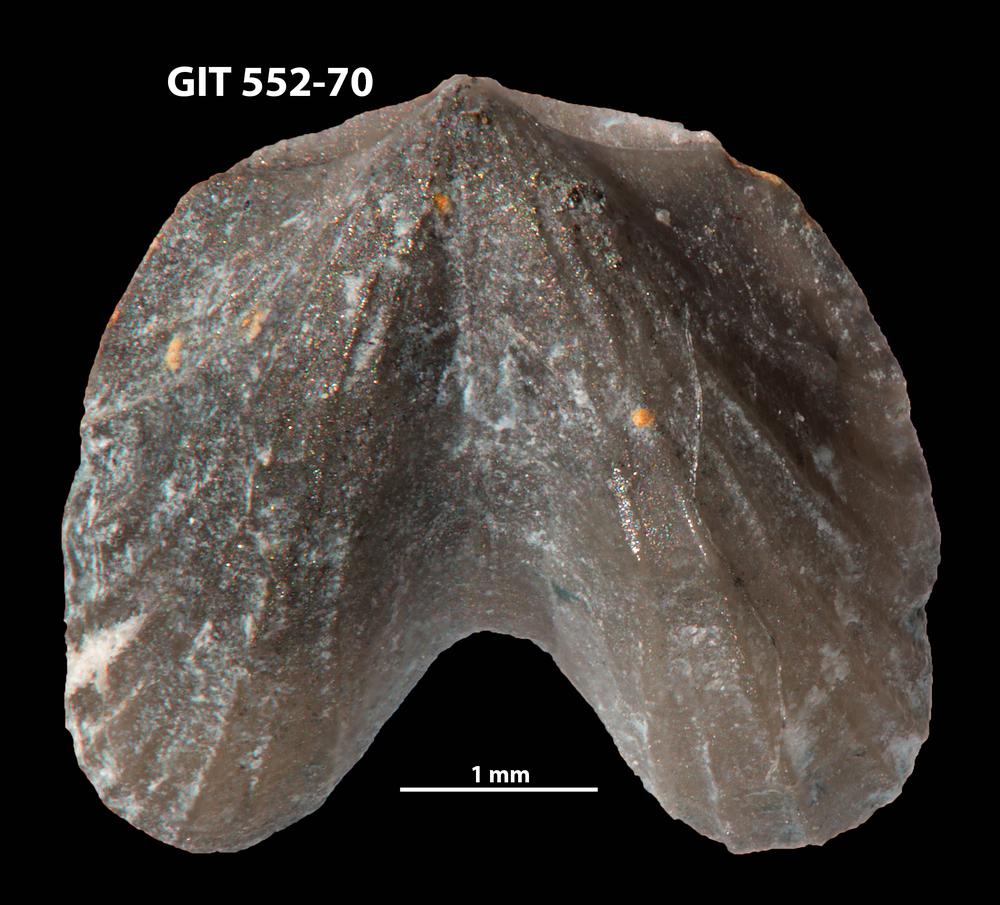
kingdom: Animalia
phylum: Brachiopoda
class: Rhynchonellata
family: Dicoelosiidae
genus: Dicoelosia
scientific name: Dicoelosia paralata
